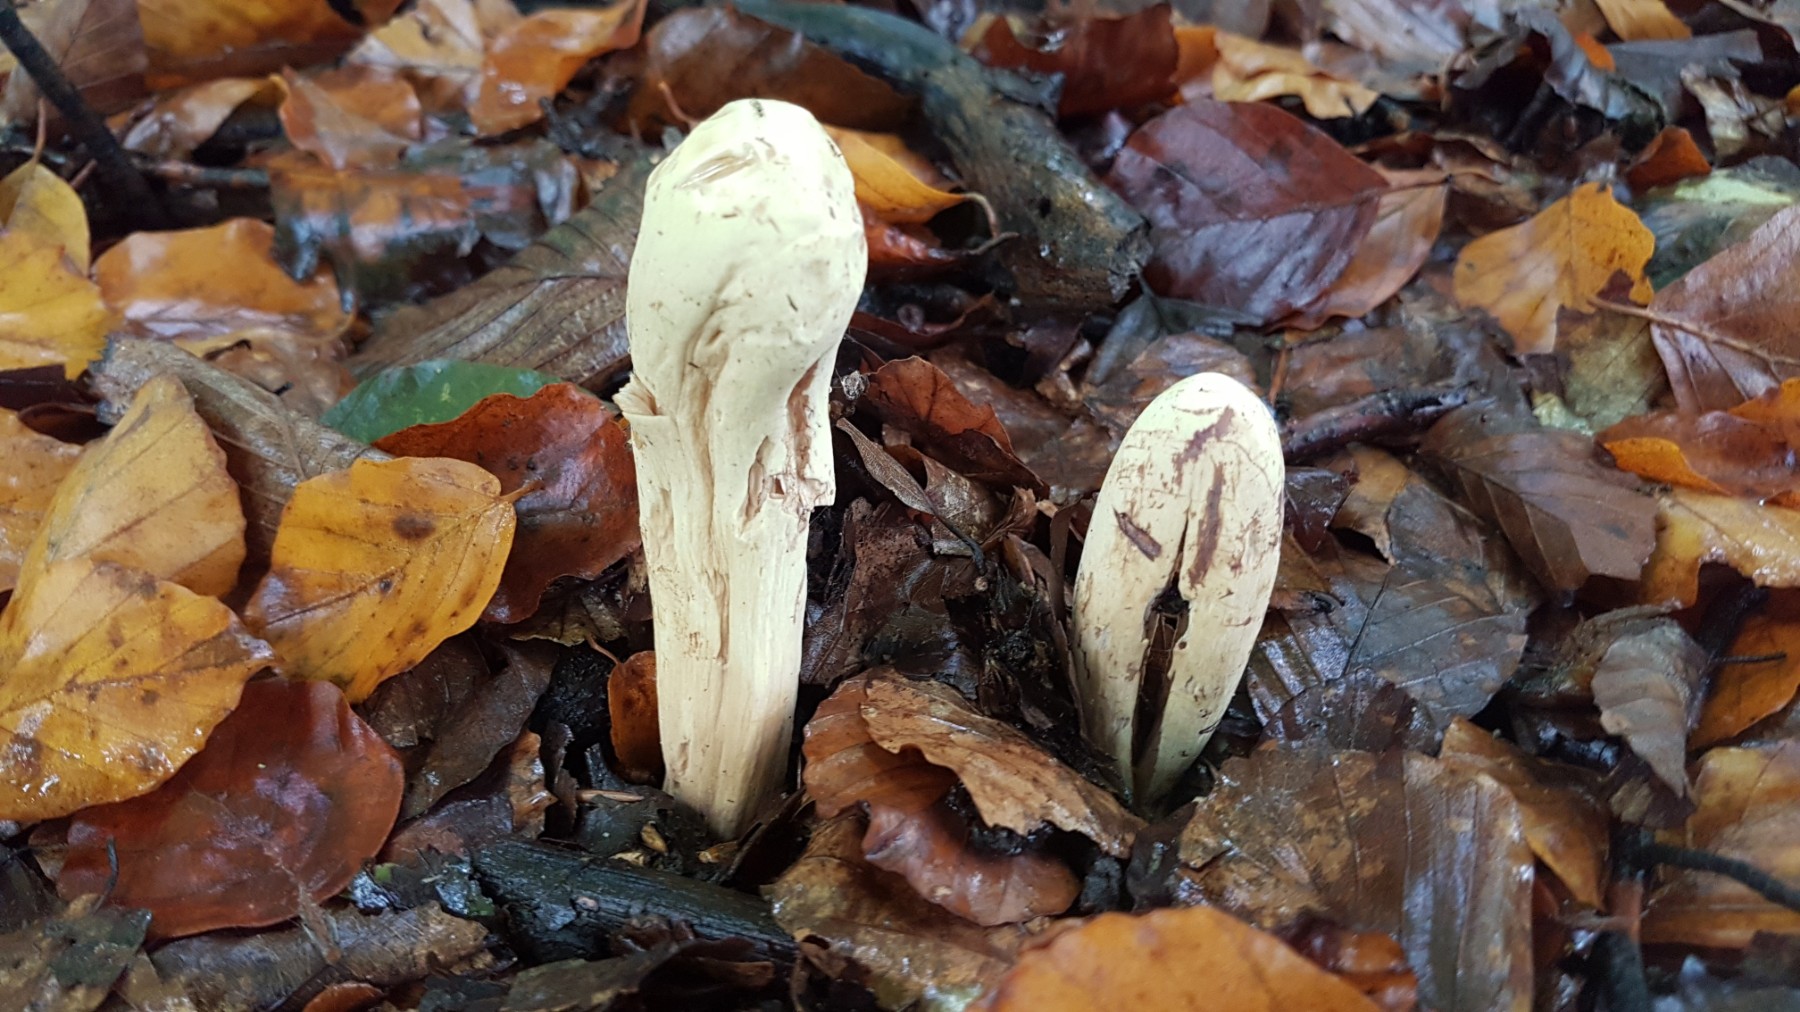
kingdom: Fungi
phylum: Basidiomycota
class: Agaricomycetes
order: Gomphales
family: Clavariadelphaceae
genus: Clavariadelphus
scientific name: Clavariadelphus pistillaris
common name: herkules-kæmpekølle
